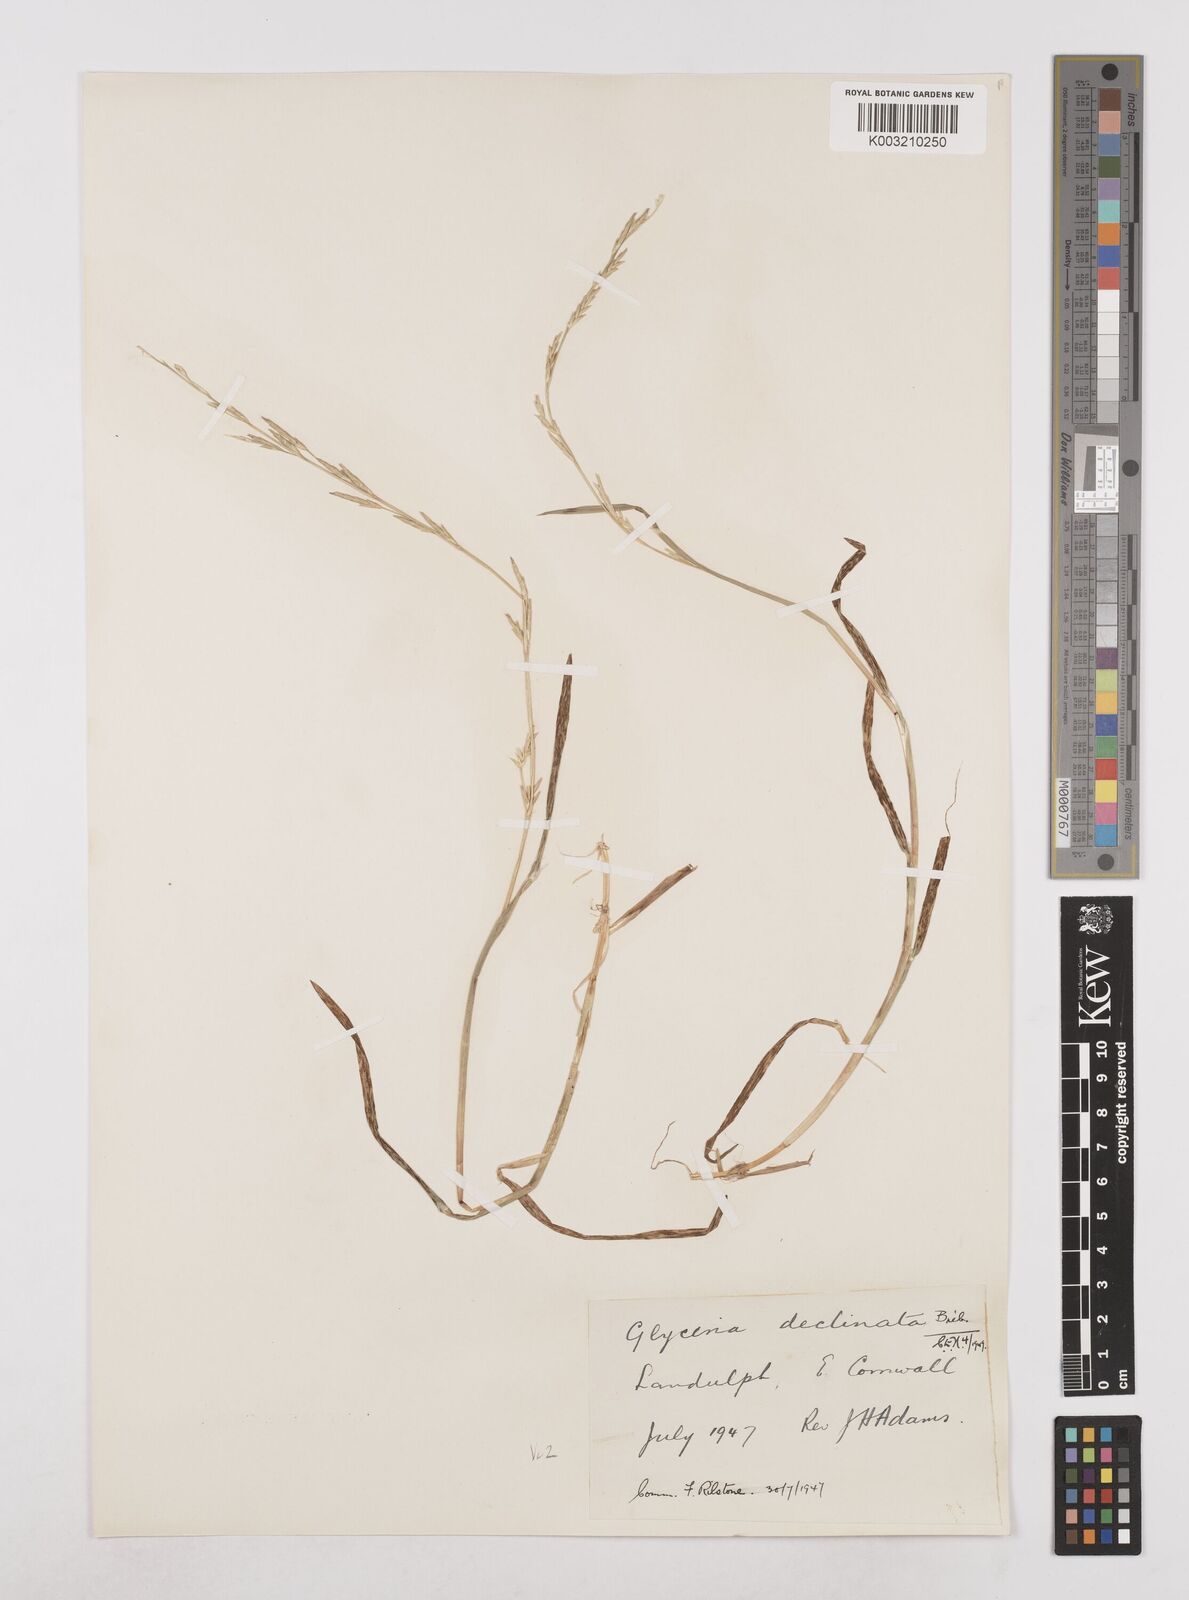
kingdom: Plantae
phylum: Tracheophyta
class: Liliopsida
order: Poales
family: Poaceae
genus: Glyceria
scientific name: Glyceria declinata
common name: Small sweet-grass
